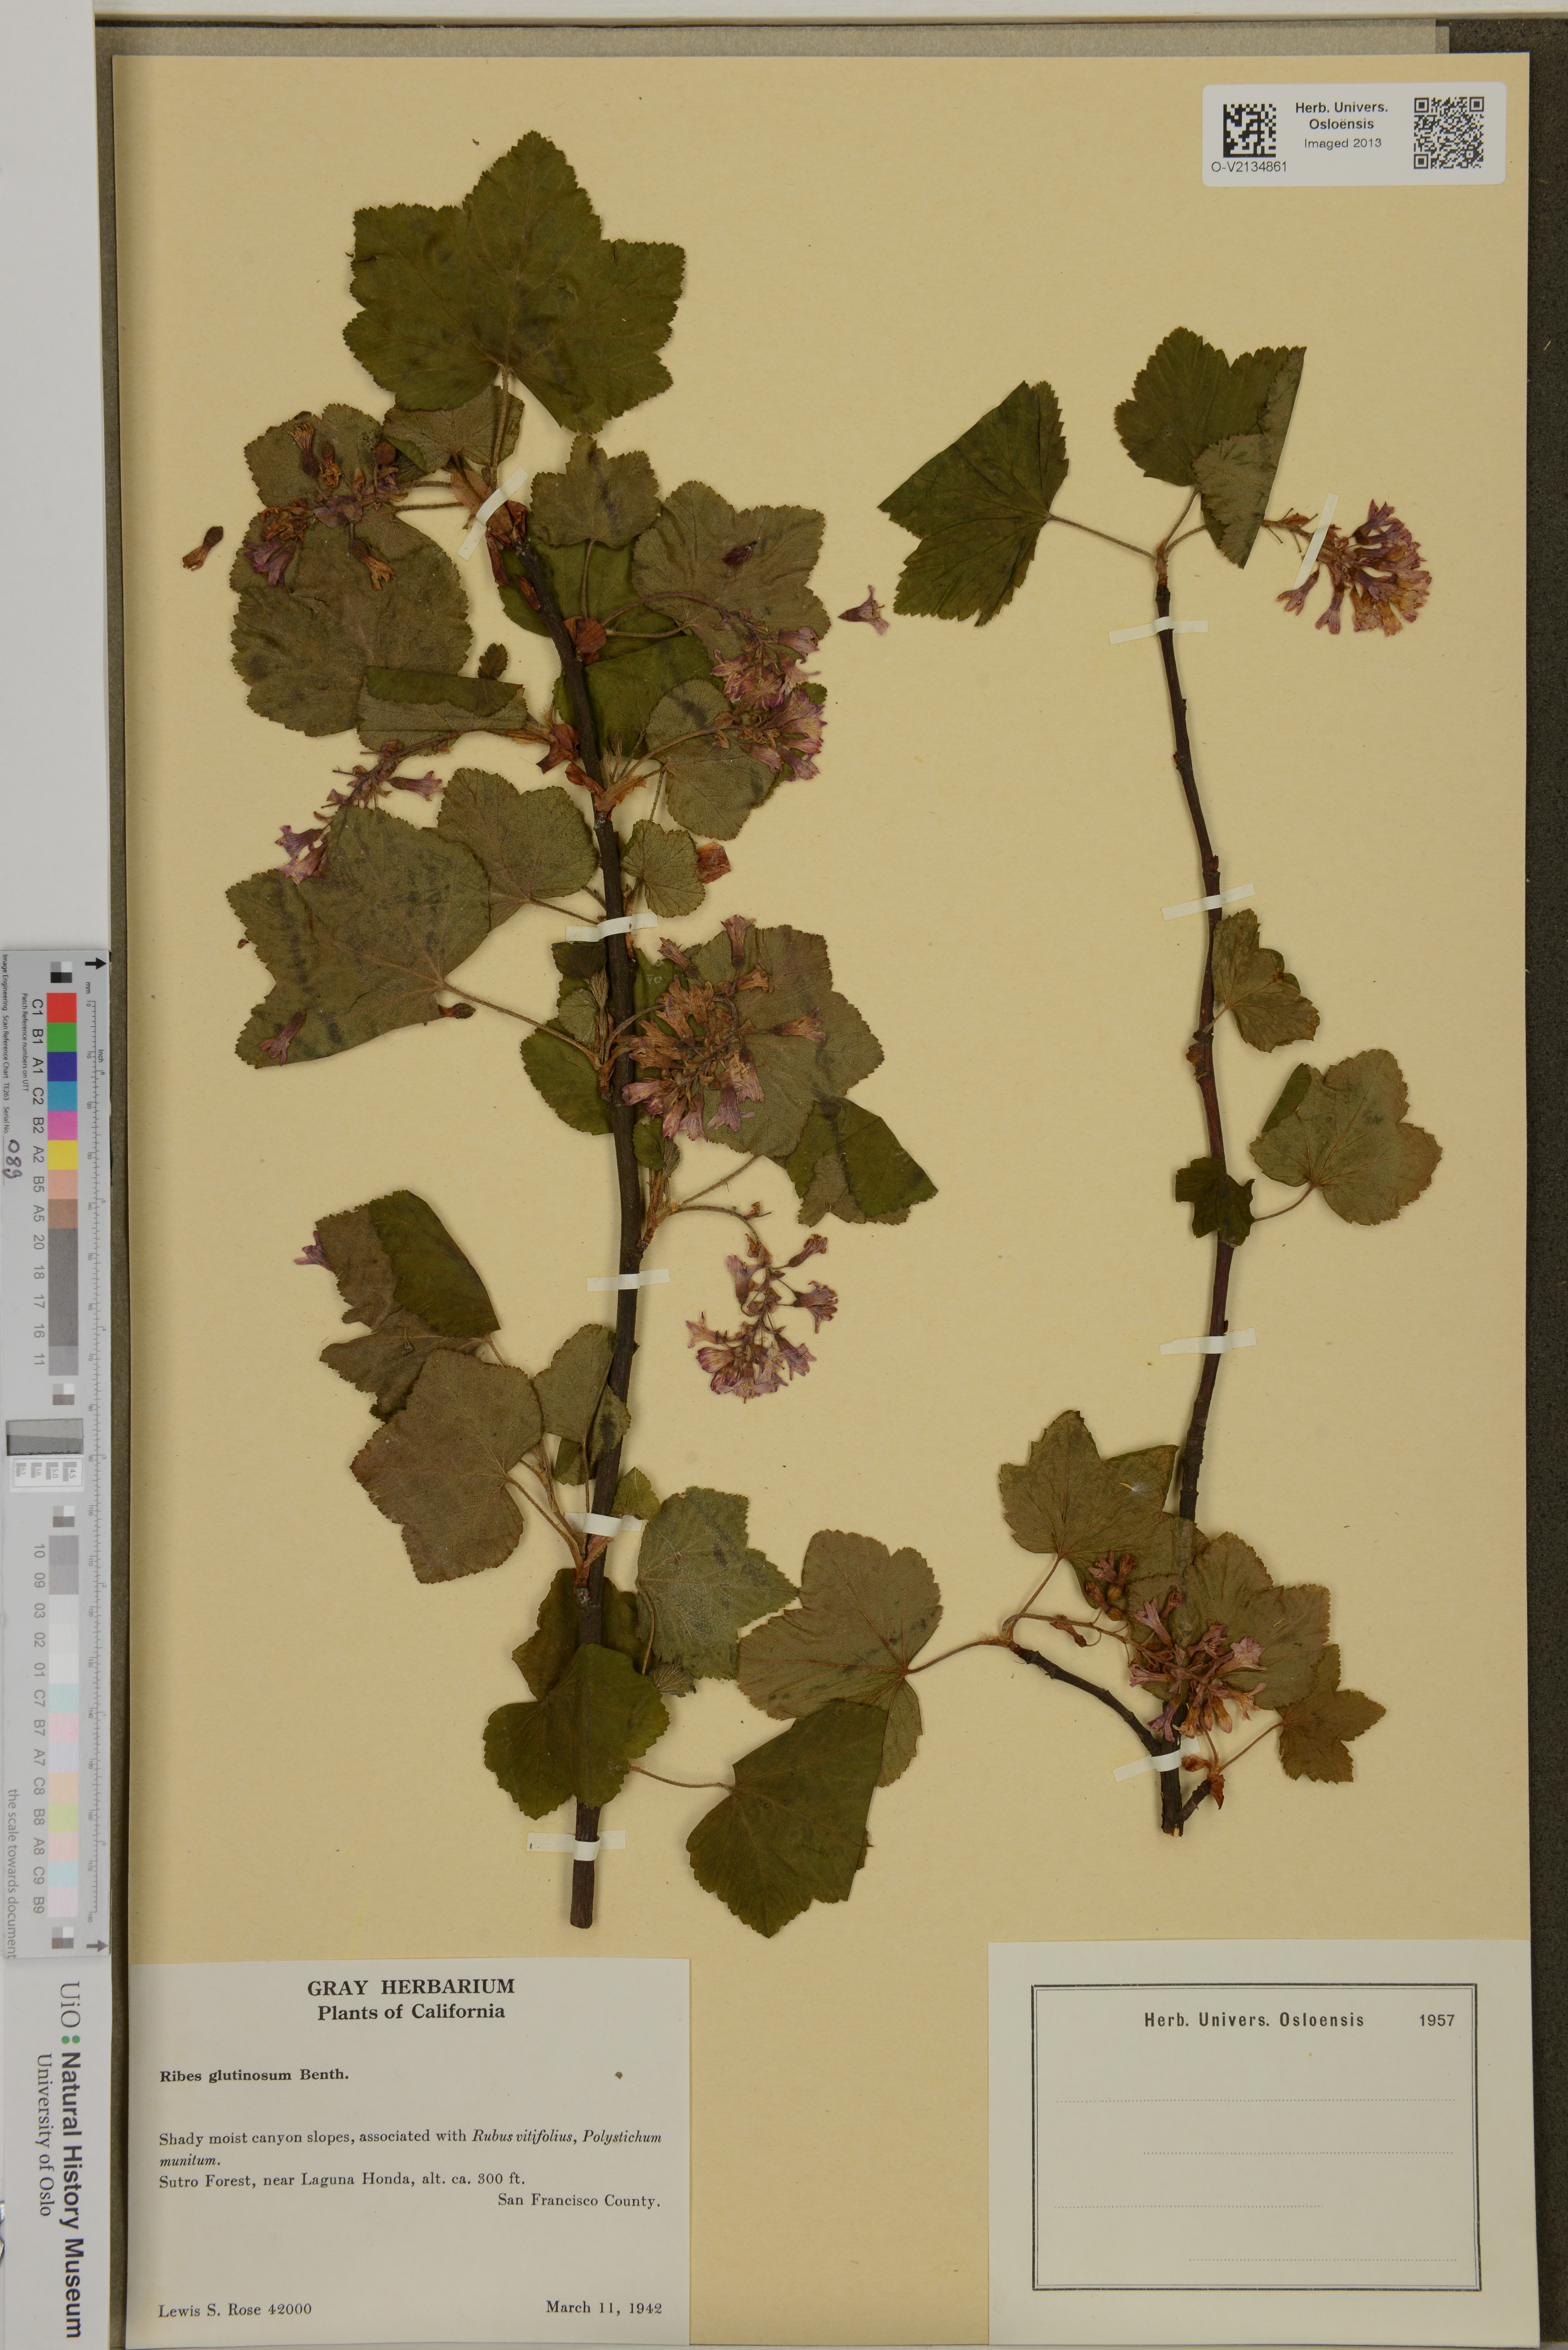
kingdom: Plantae
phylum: Tracheophyta
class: Magnoliopsida
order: Saxifragales
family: Grossulariaceae
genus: Ribes
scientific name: Ribes
